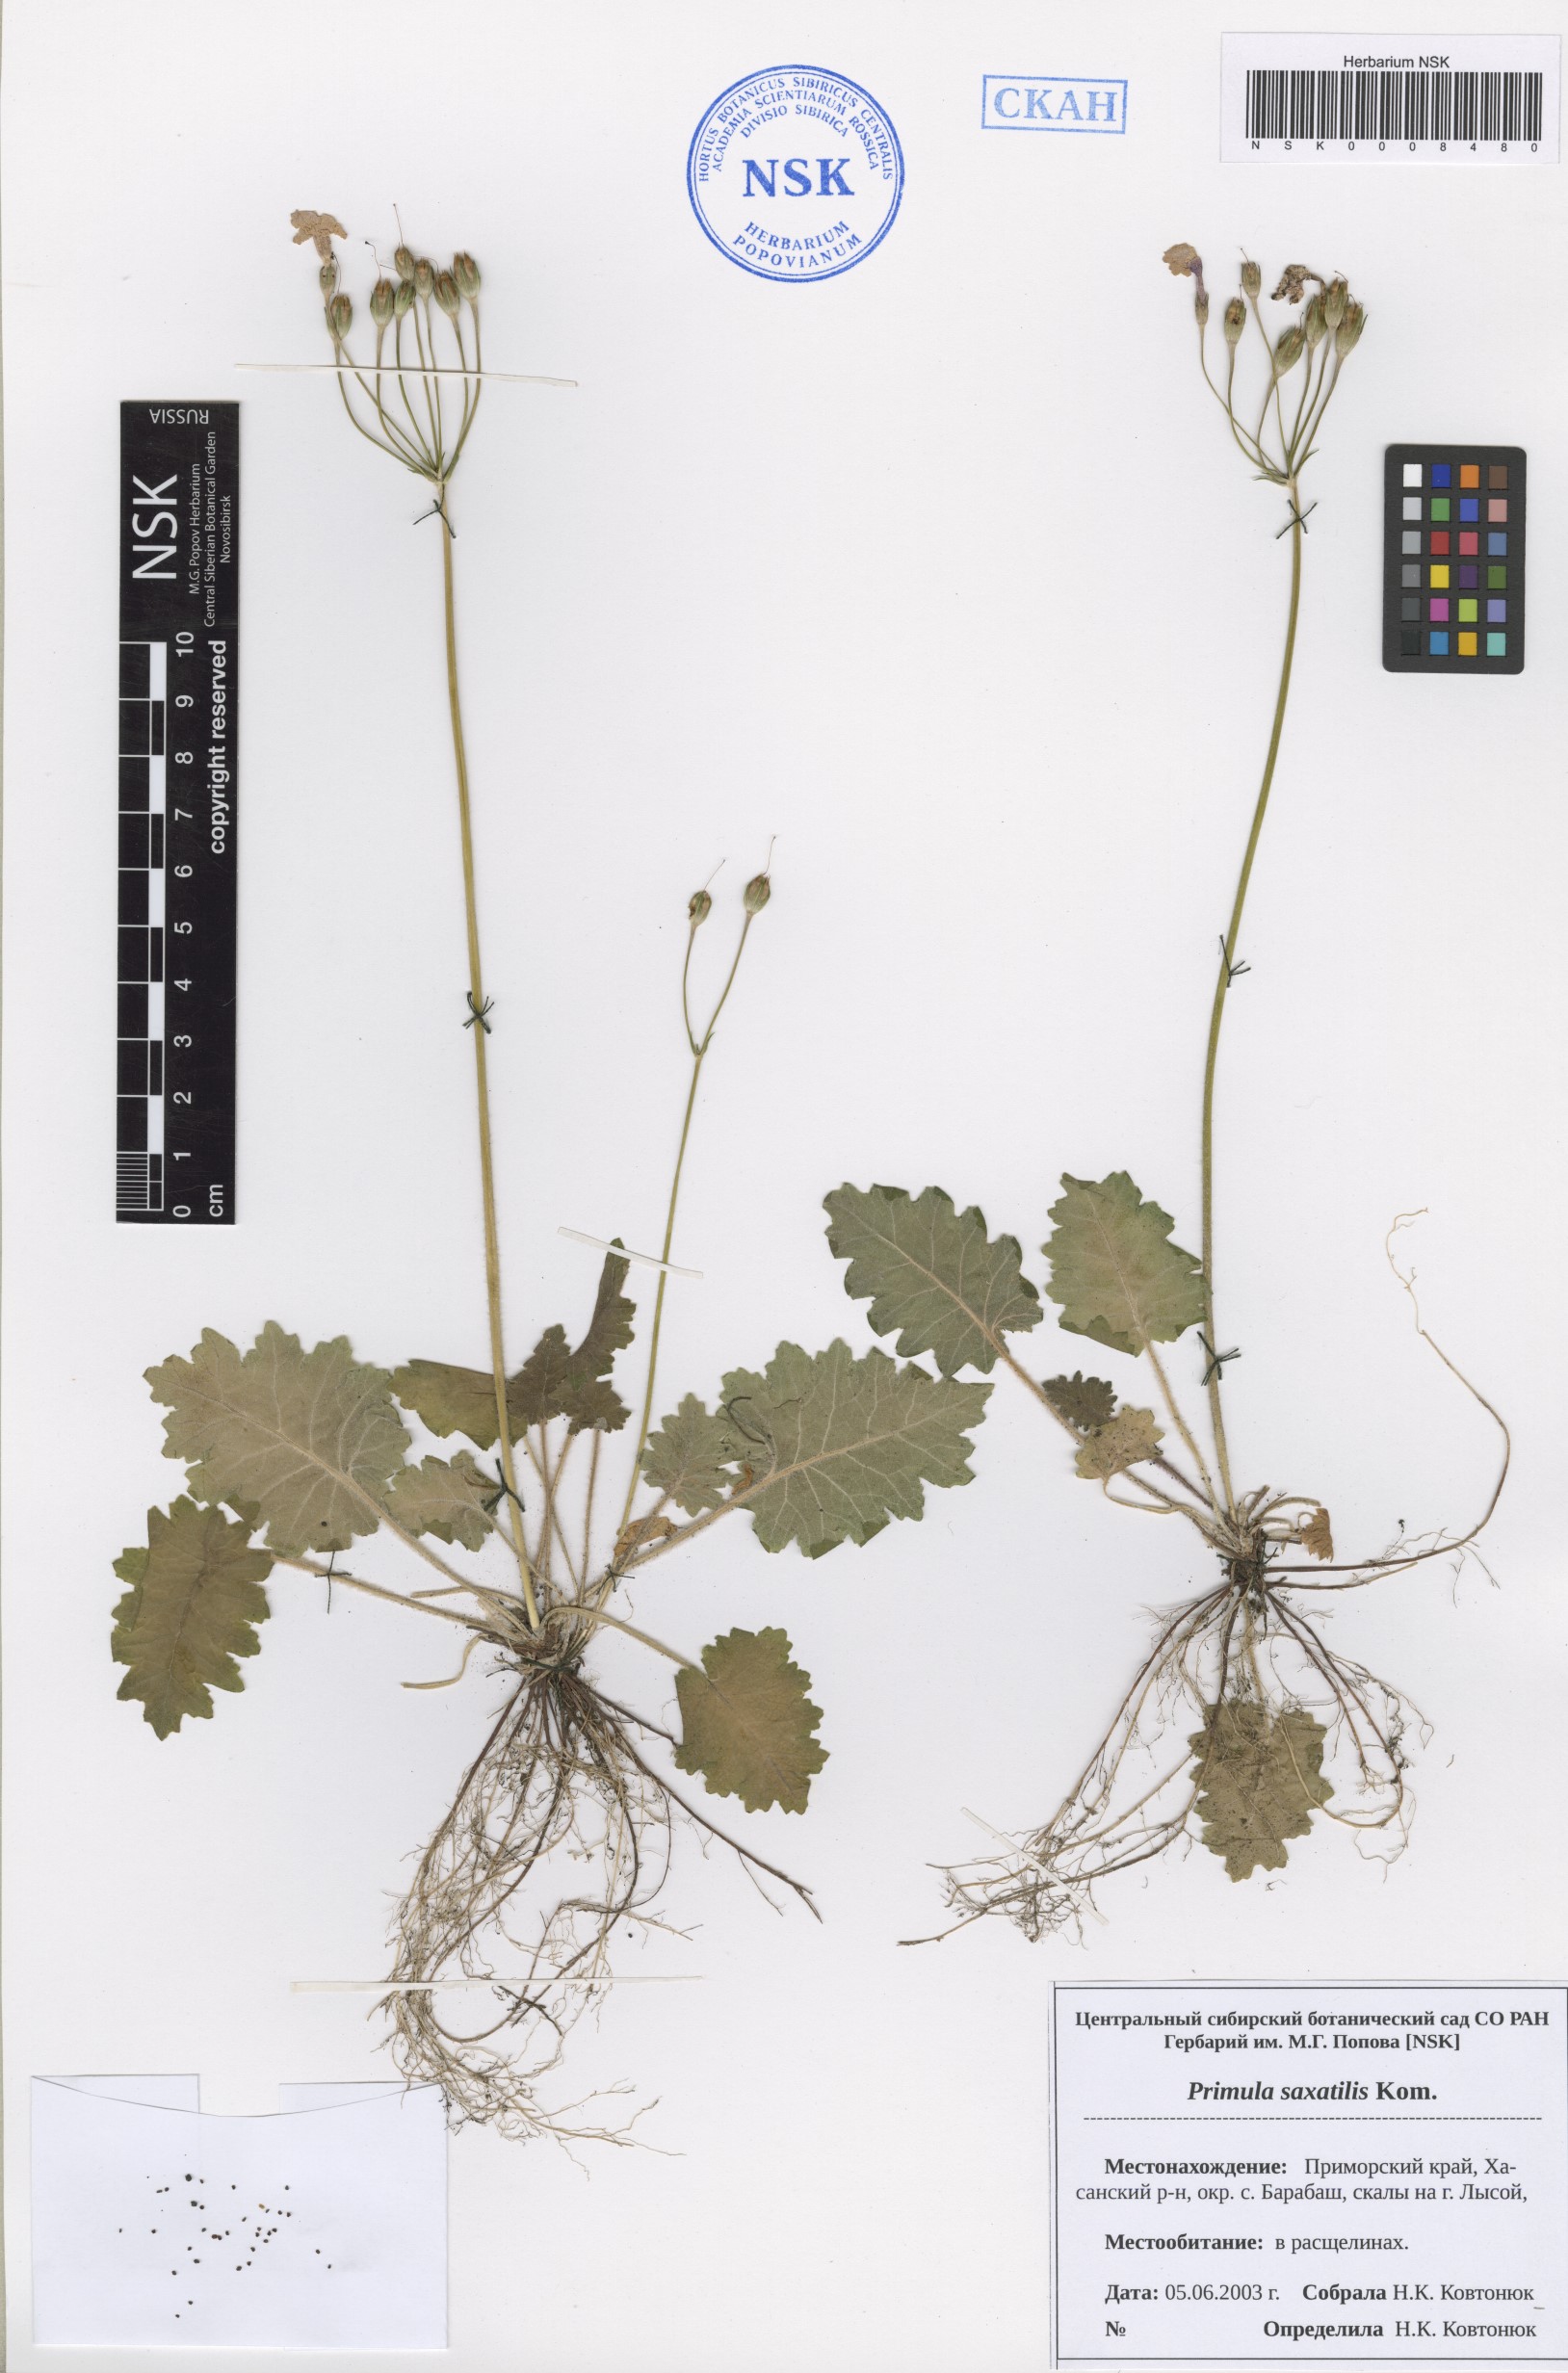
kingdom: Plantae
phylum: Tracheophyta
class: Magnoliopsida
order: Ericales
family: Primulaceae
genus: Primula
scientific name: Primula saxatilis
